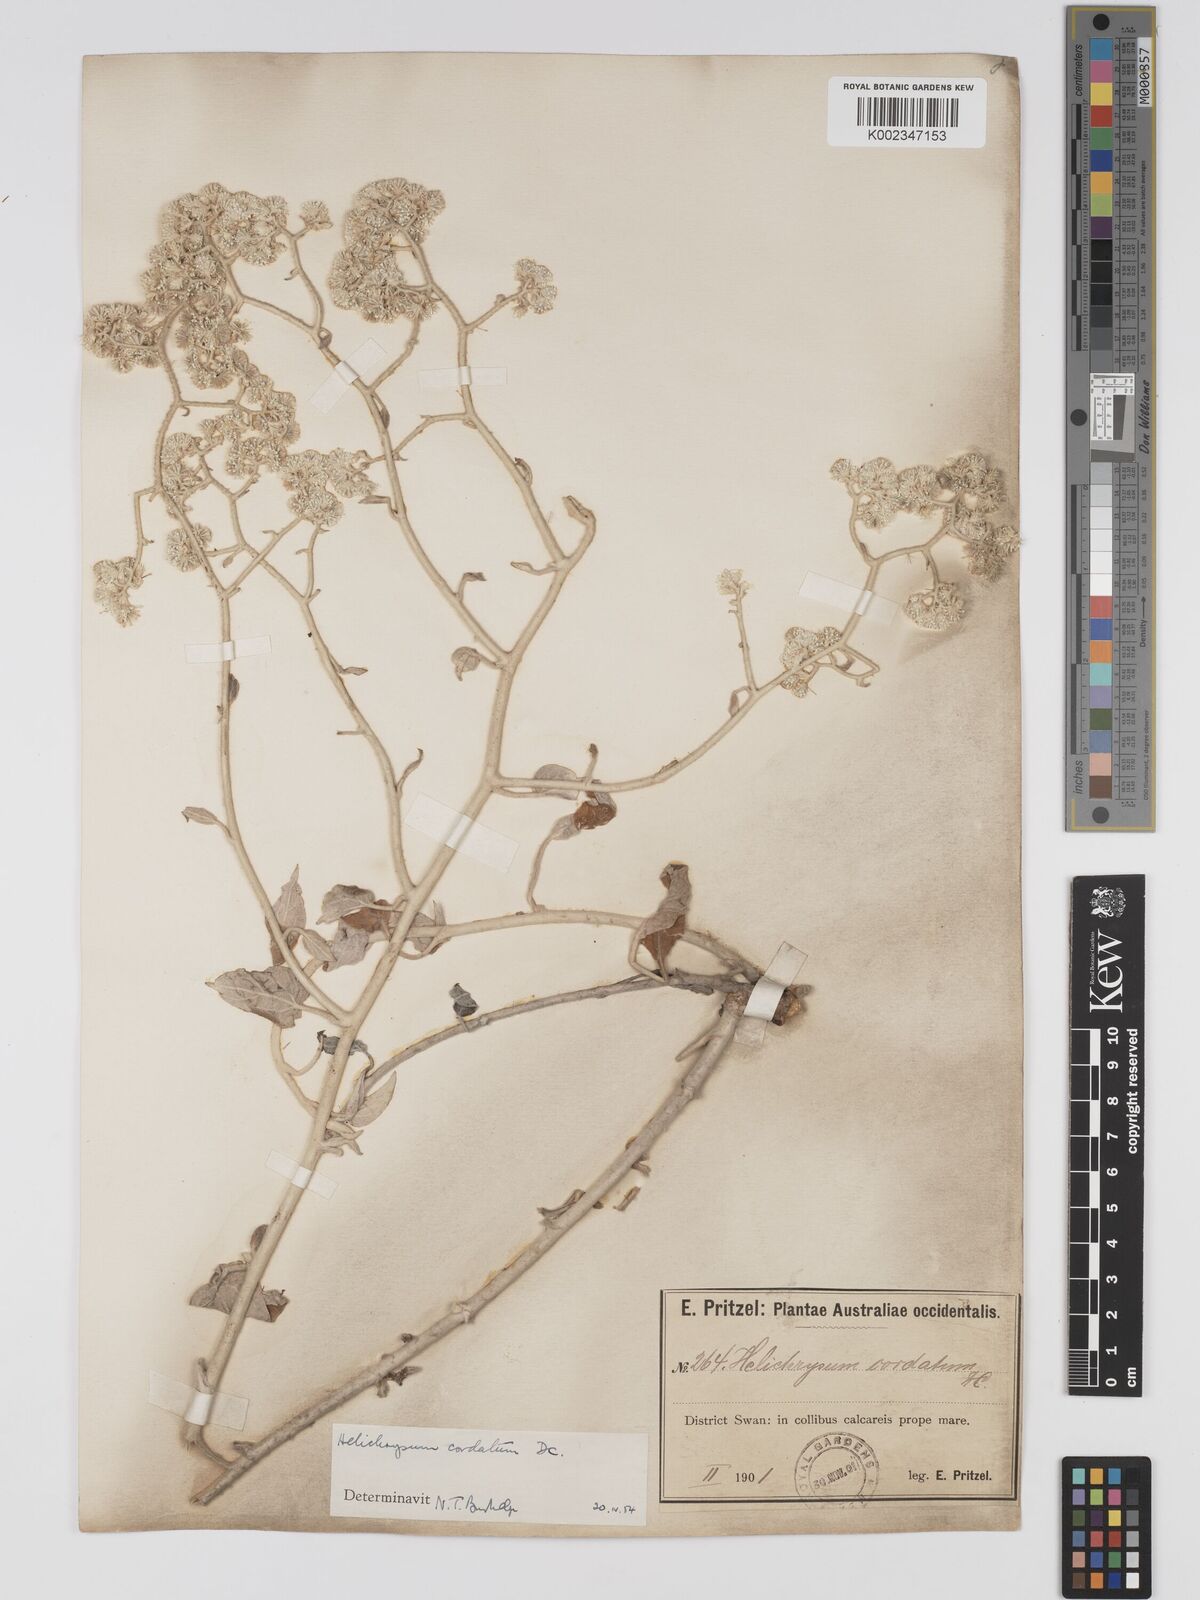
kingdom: Plantae
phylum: Tracheophyta
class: Magnoliopsida
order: Asterales
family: Asteraceae
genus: Ozothamnus
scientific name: Ozothamnus
